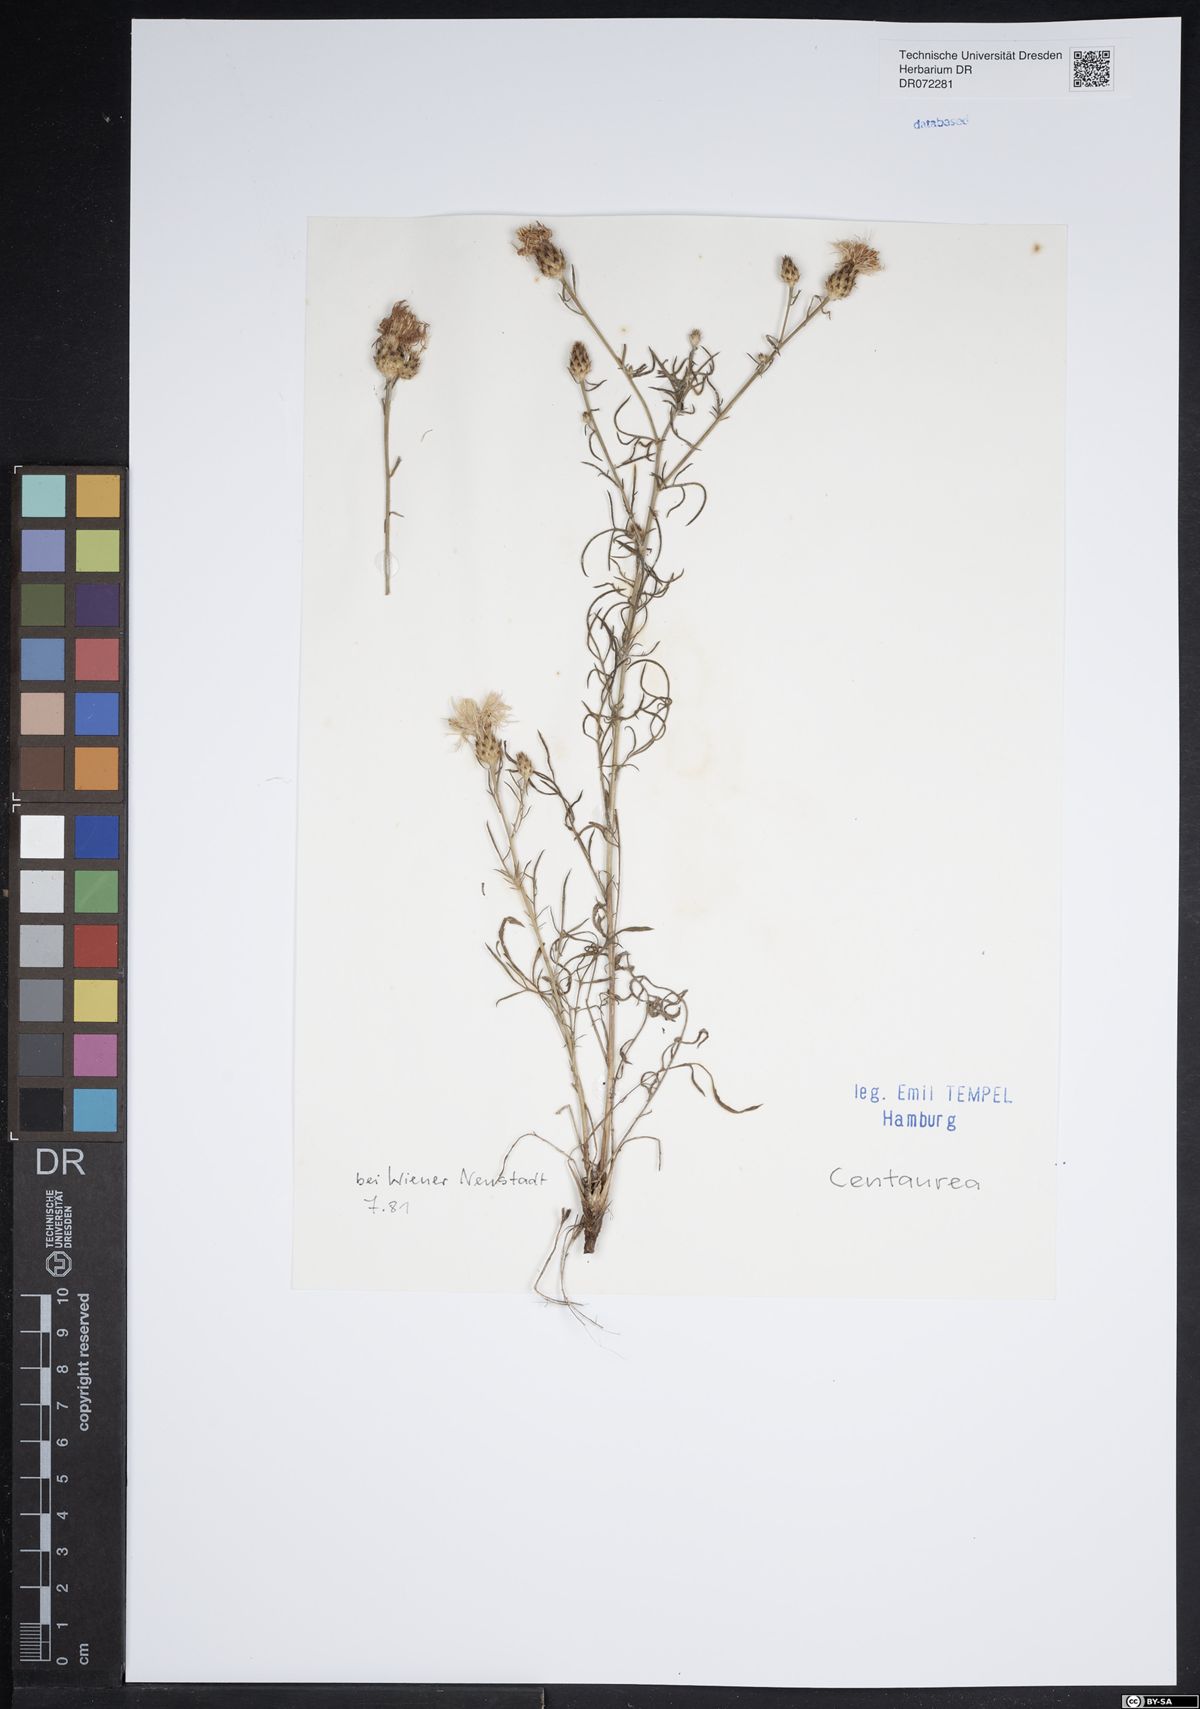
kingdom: Plantae
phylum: Tracheophyta
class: Magnoliopsida
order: Asterales
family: Asteraceae
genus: Centaurea
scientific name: Centaurea
